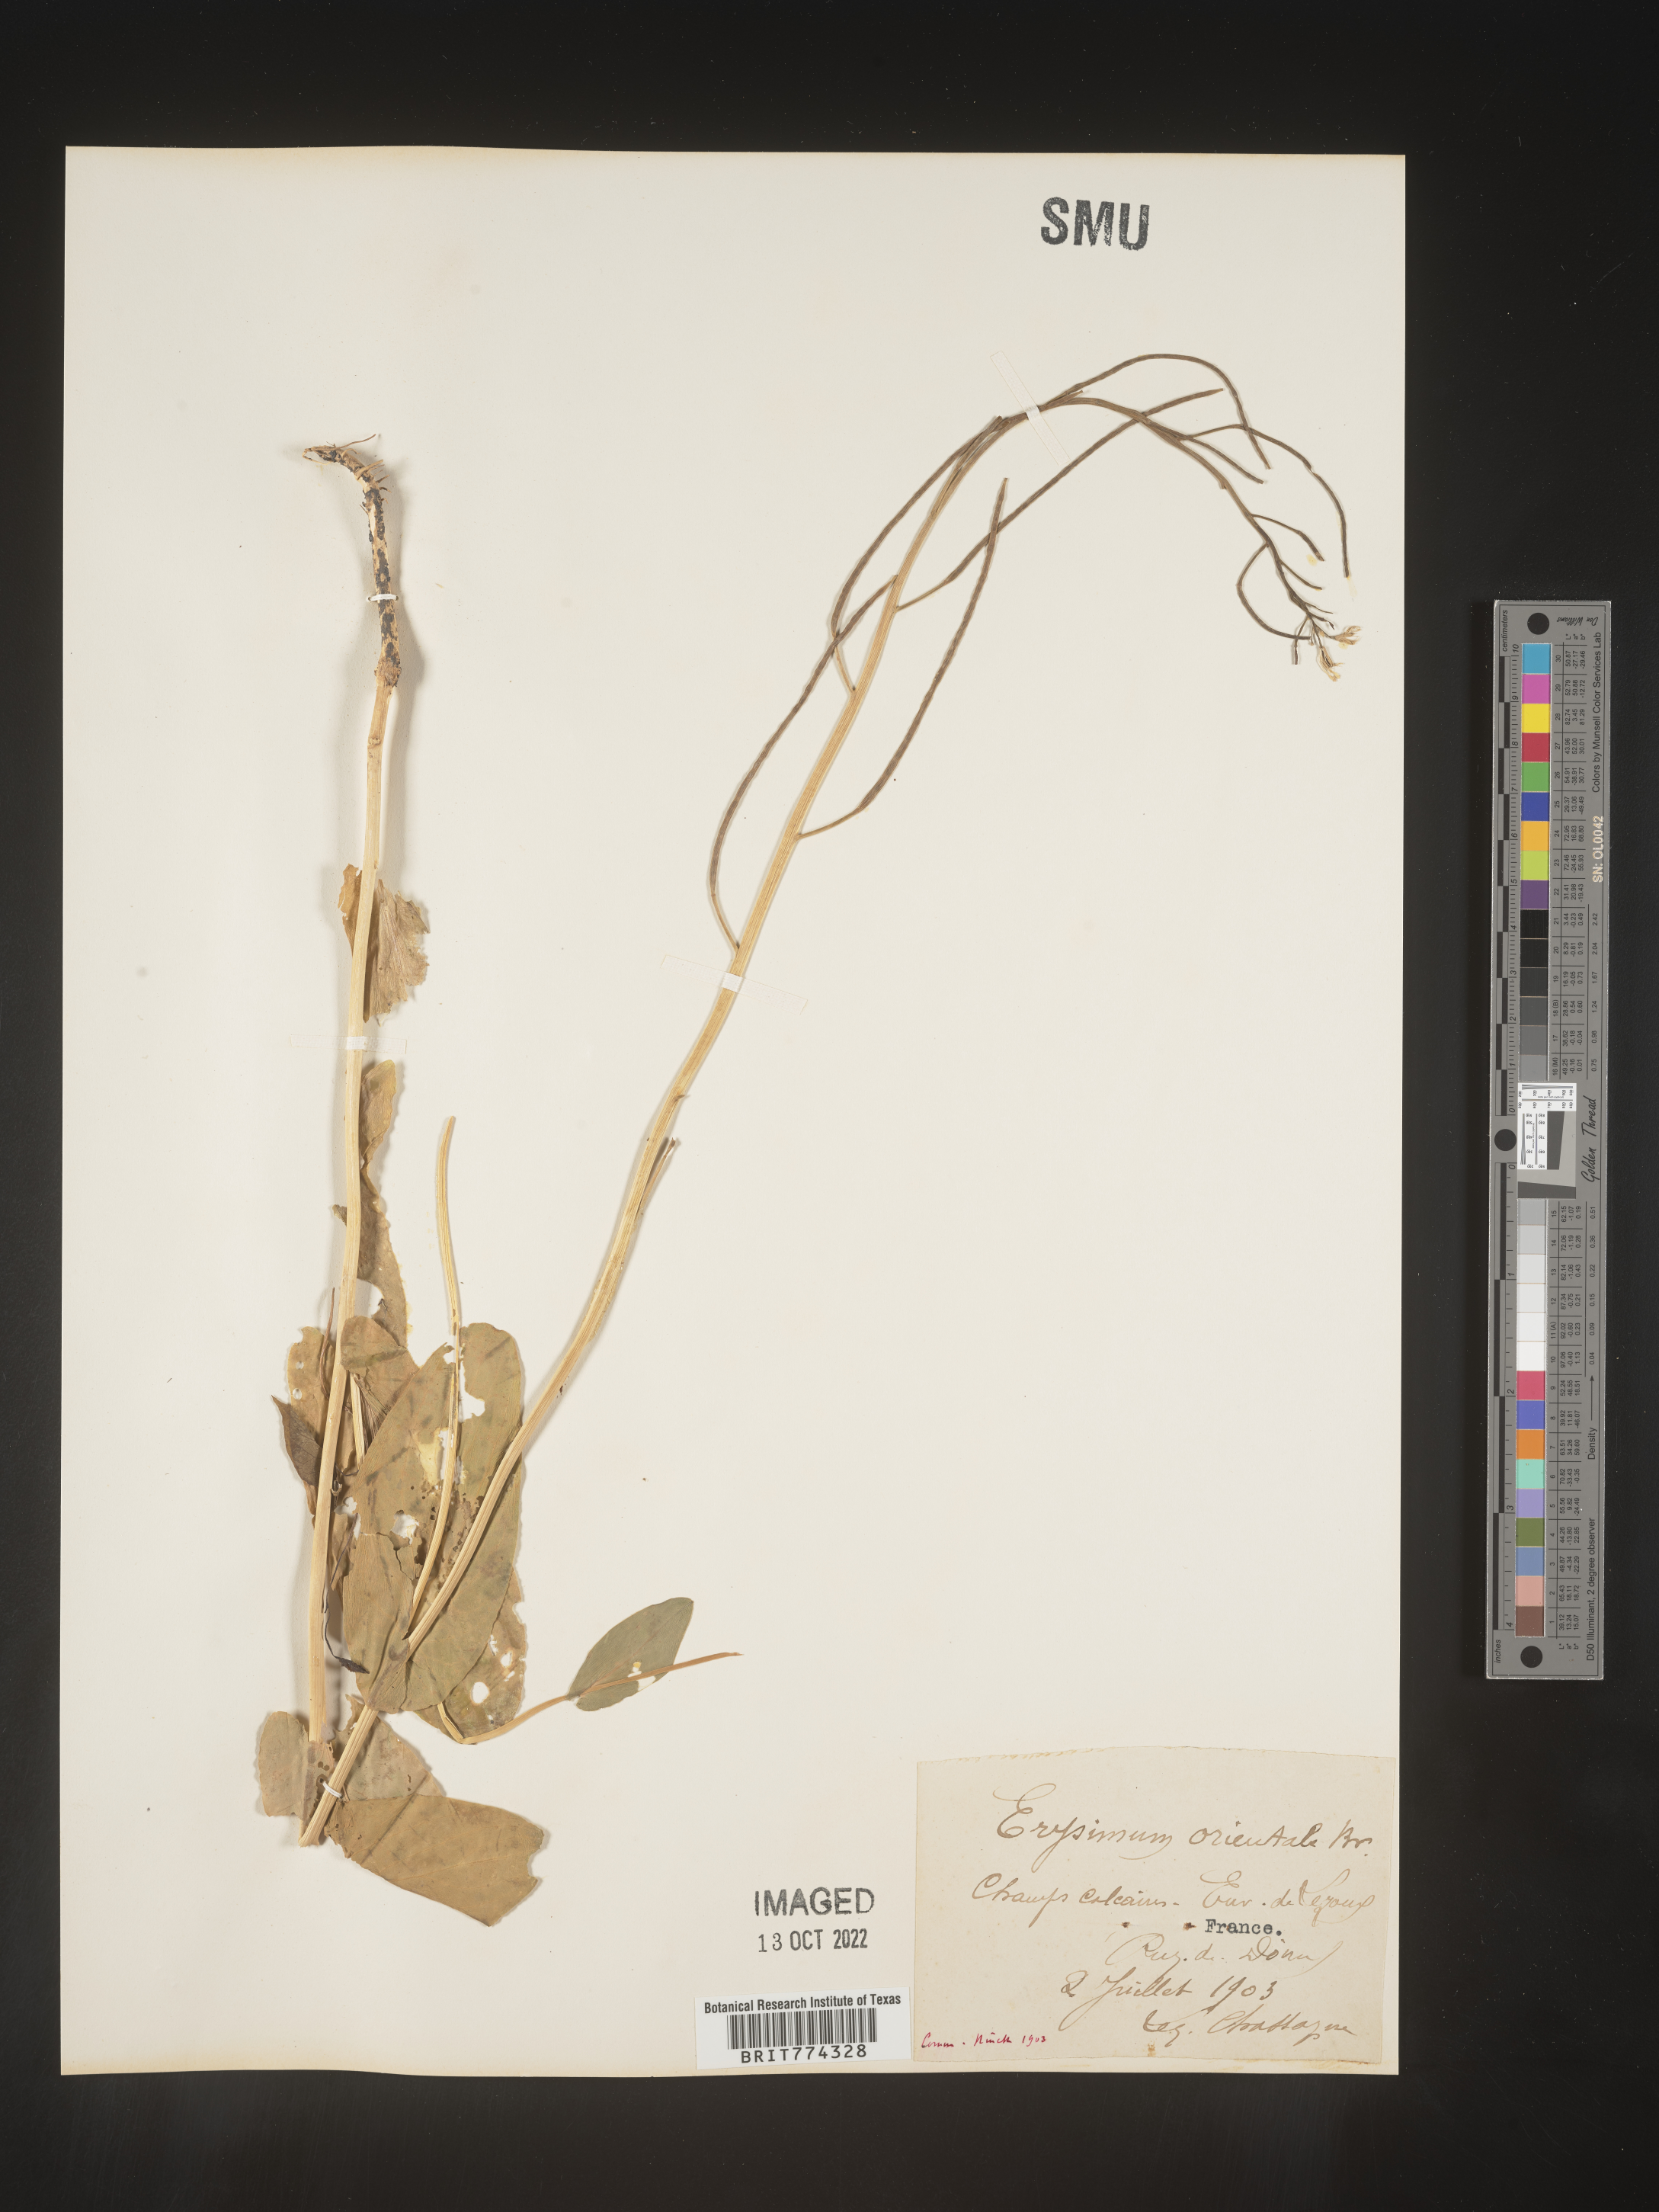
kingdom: Plantae
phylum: Tracheophyta
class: Magnoliopsida
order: Brassicales
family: Brassicaceae
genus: Conringia
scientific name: Conringia
